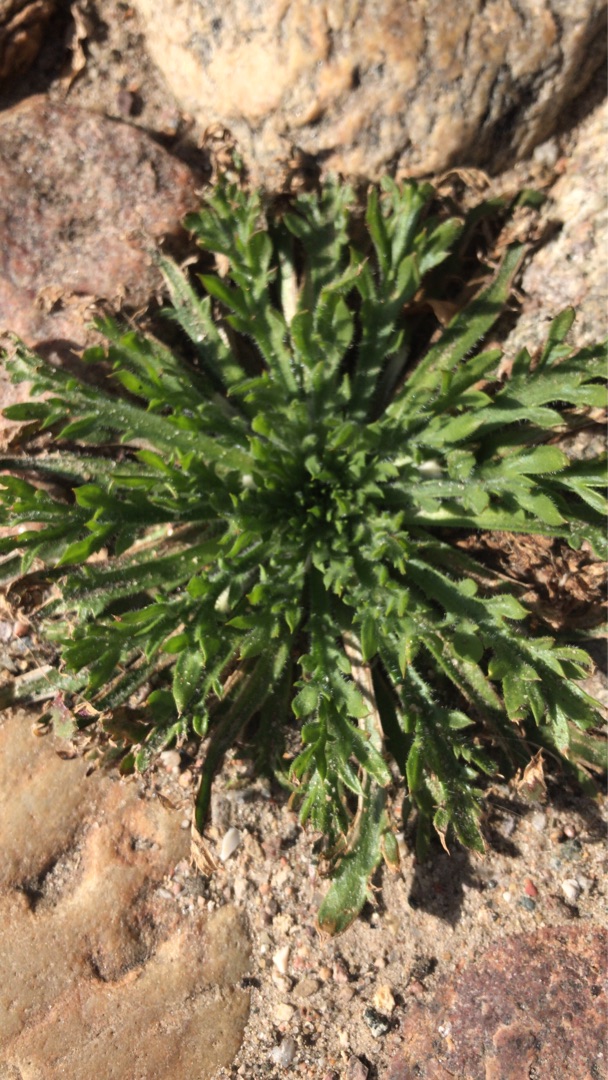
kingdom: Plantae
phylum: Tracheophyta
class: Magnoliopsida
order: Lamiales
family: Plantaginaceae
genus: Plantago
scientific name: Plantago coronopus
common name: Fliget vejbred
